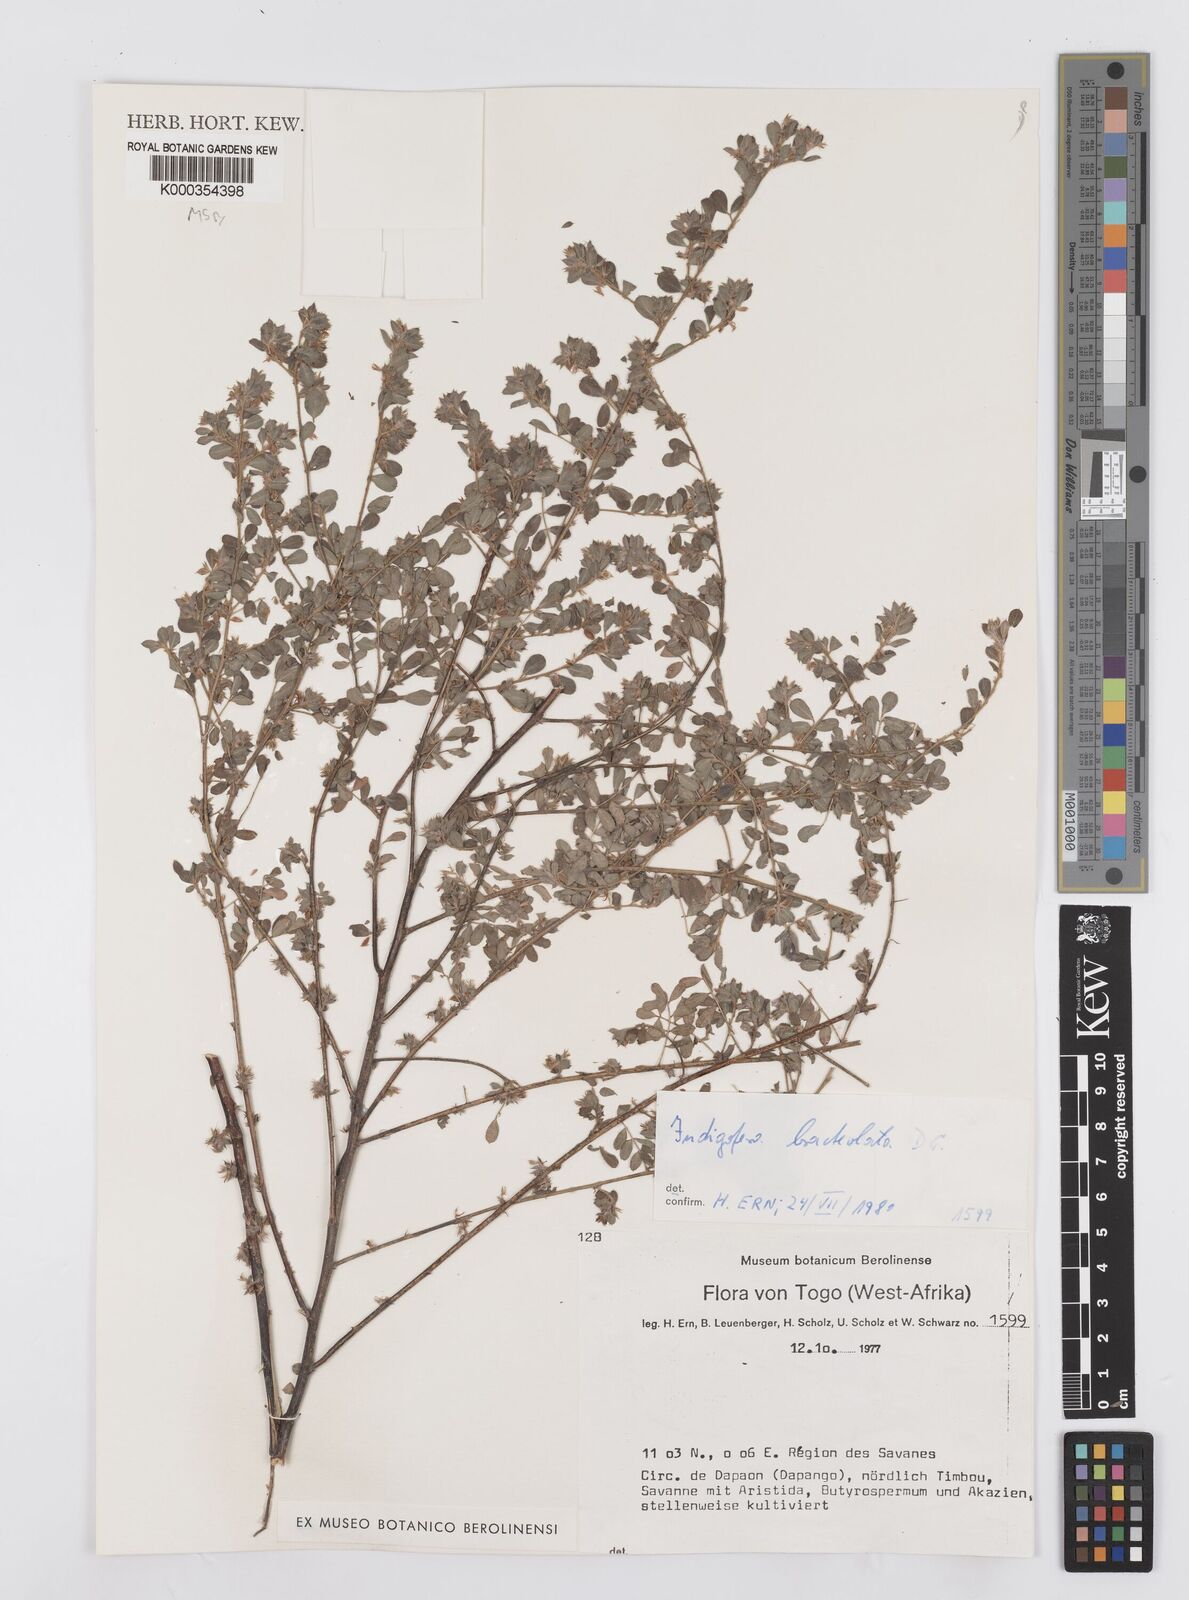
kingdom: Plantae
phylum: Tracheophyta
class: Magnoliopsida
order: Fabales
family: Fabaceae
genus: Indigofera
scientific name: Indigofera bracteolata
